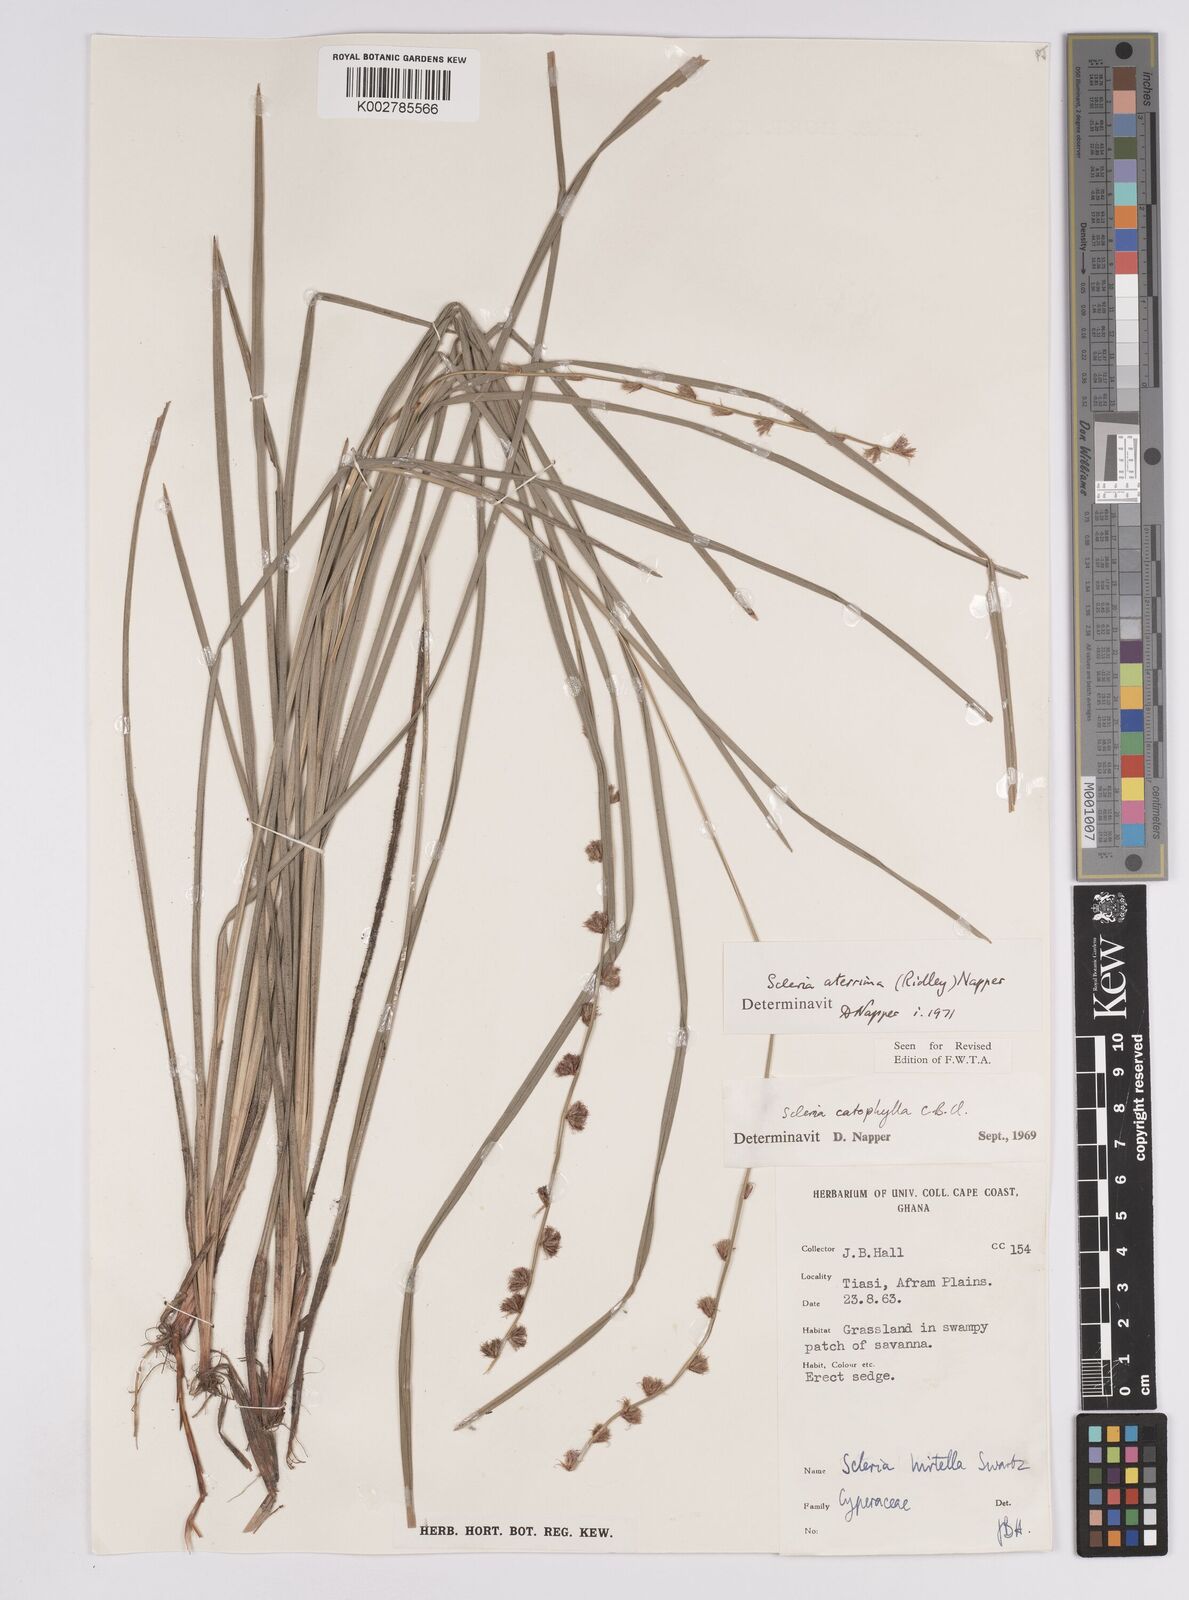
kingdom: Plantae
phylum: Tracheophyta
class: Liliopsida
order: Poales
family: Cyperaceae
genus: Scleria
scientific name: Scleria catophylla
